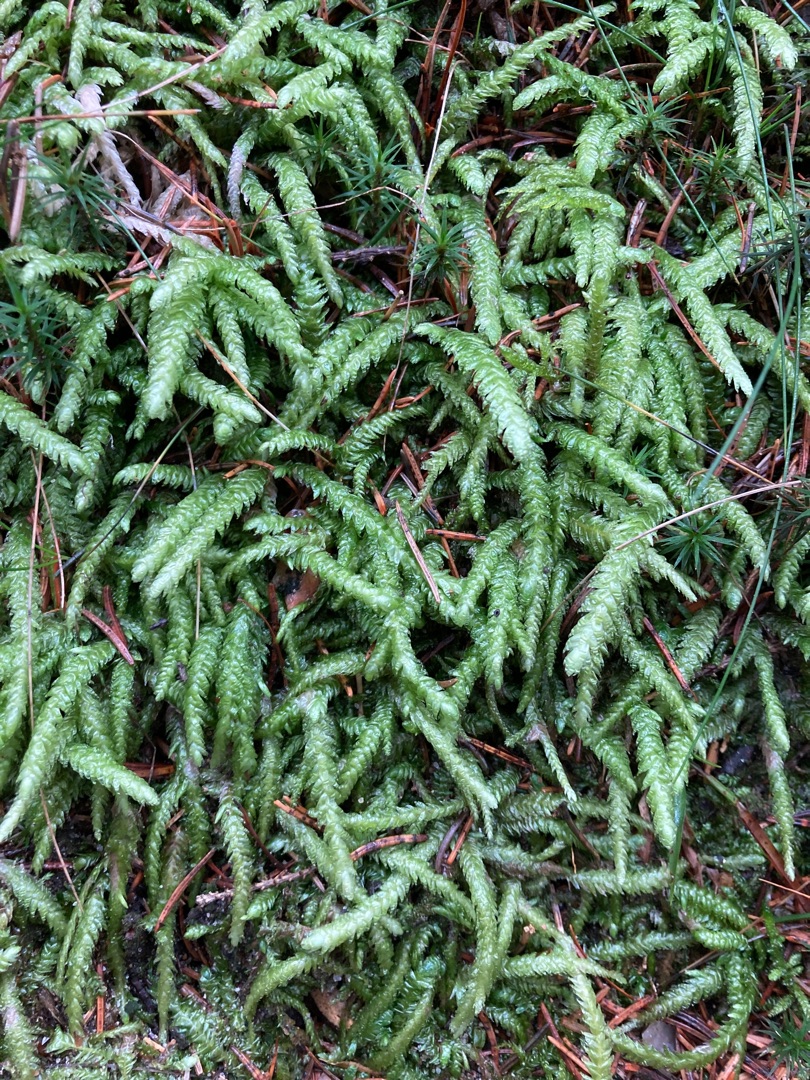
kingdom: Plantae
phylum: Bryophyta
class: Bryopsida
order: Hypnales
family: Plagiotheciaceae
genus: Plagiothecium
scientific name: Plagiothecium undulatum
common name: Bølget tæppemos
